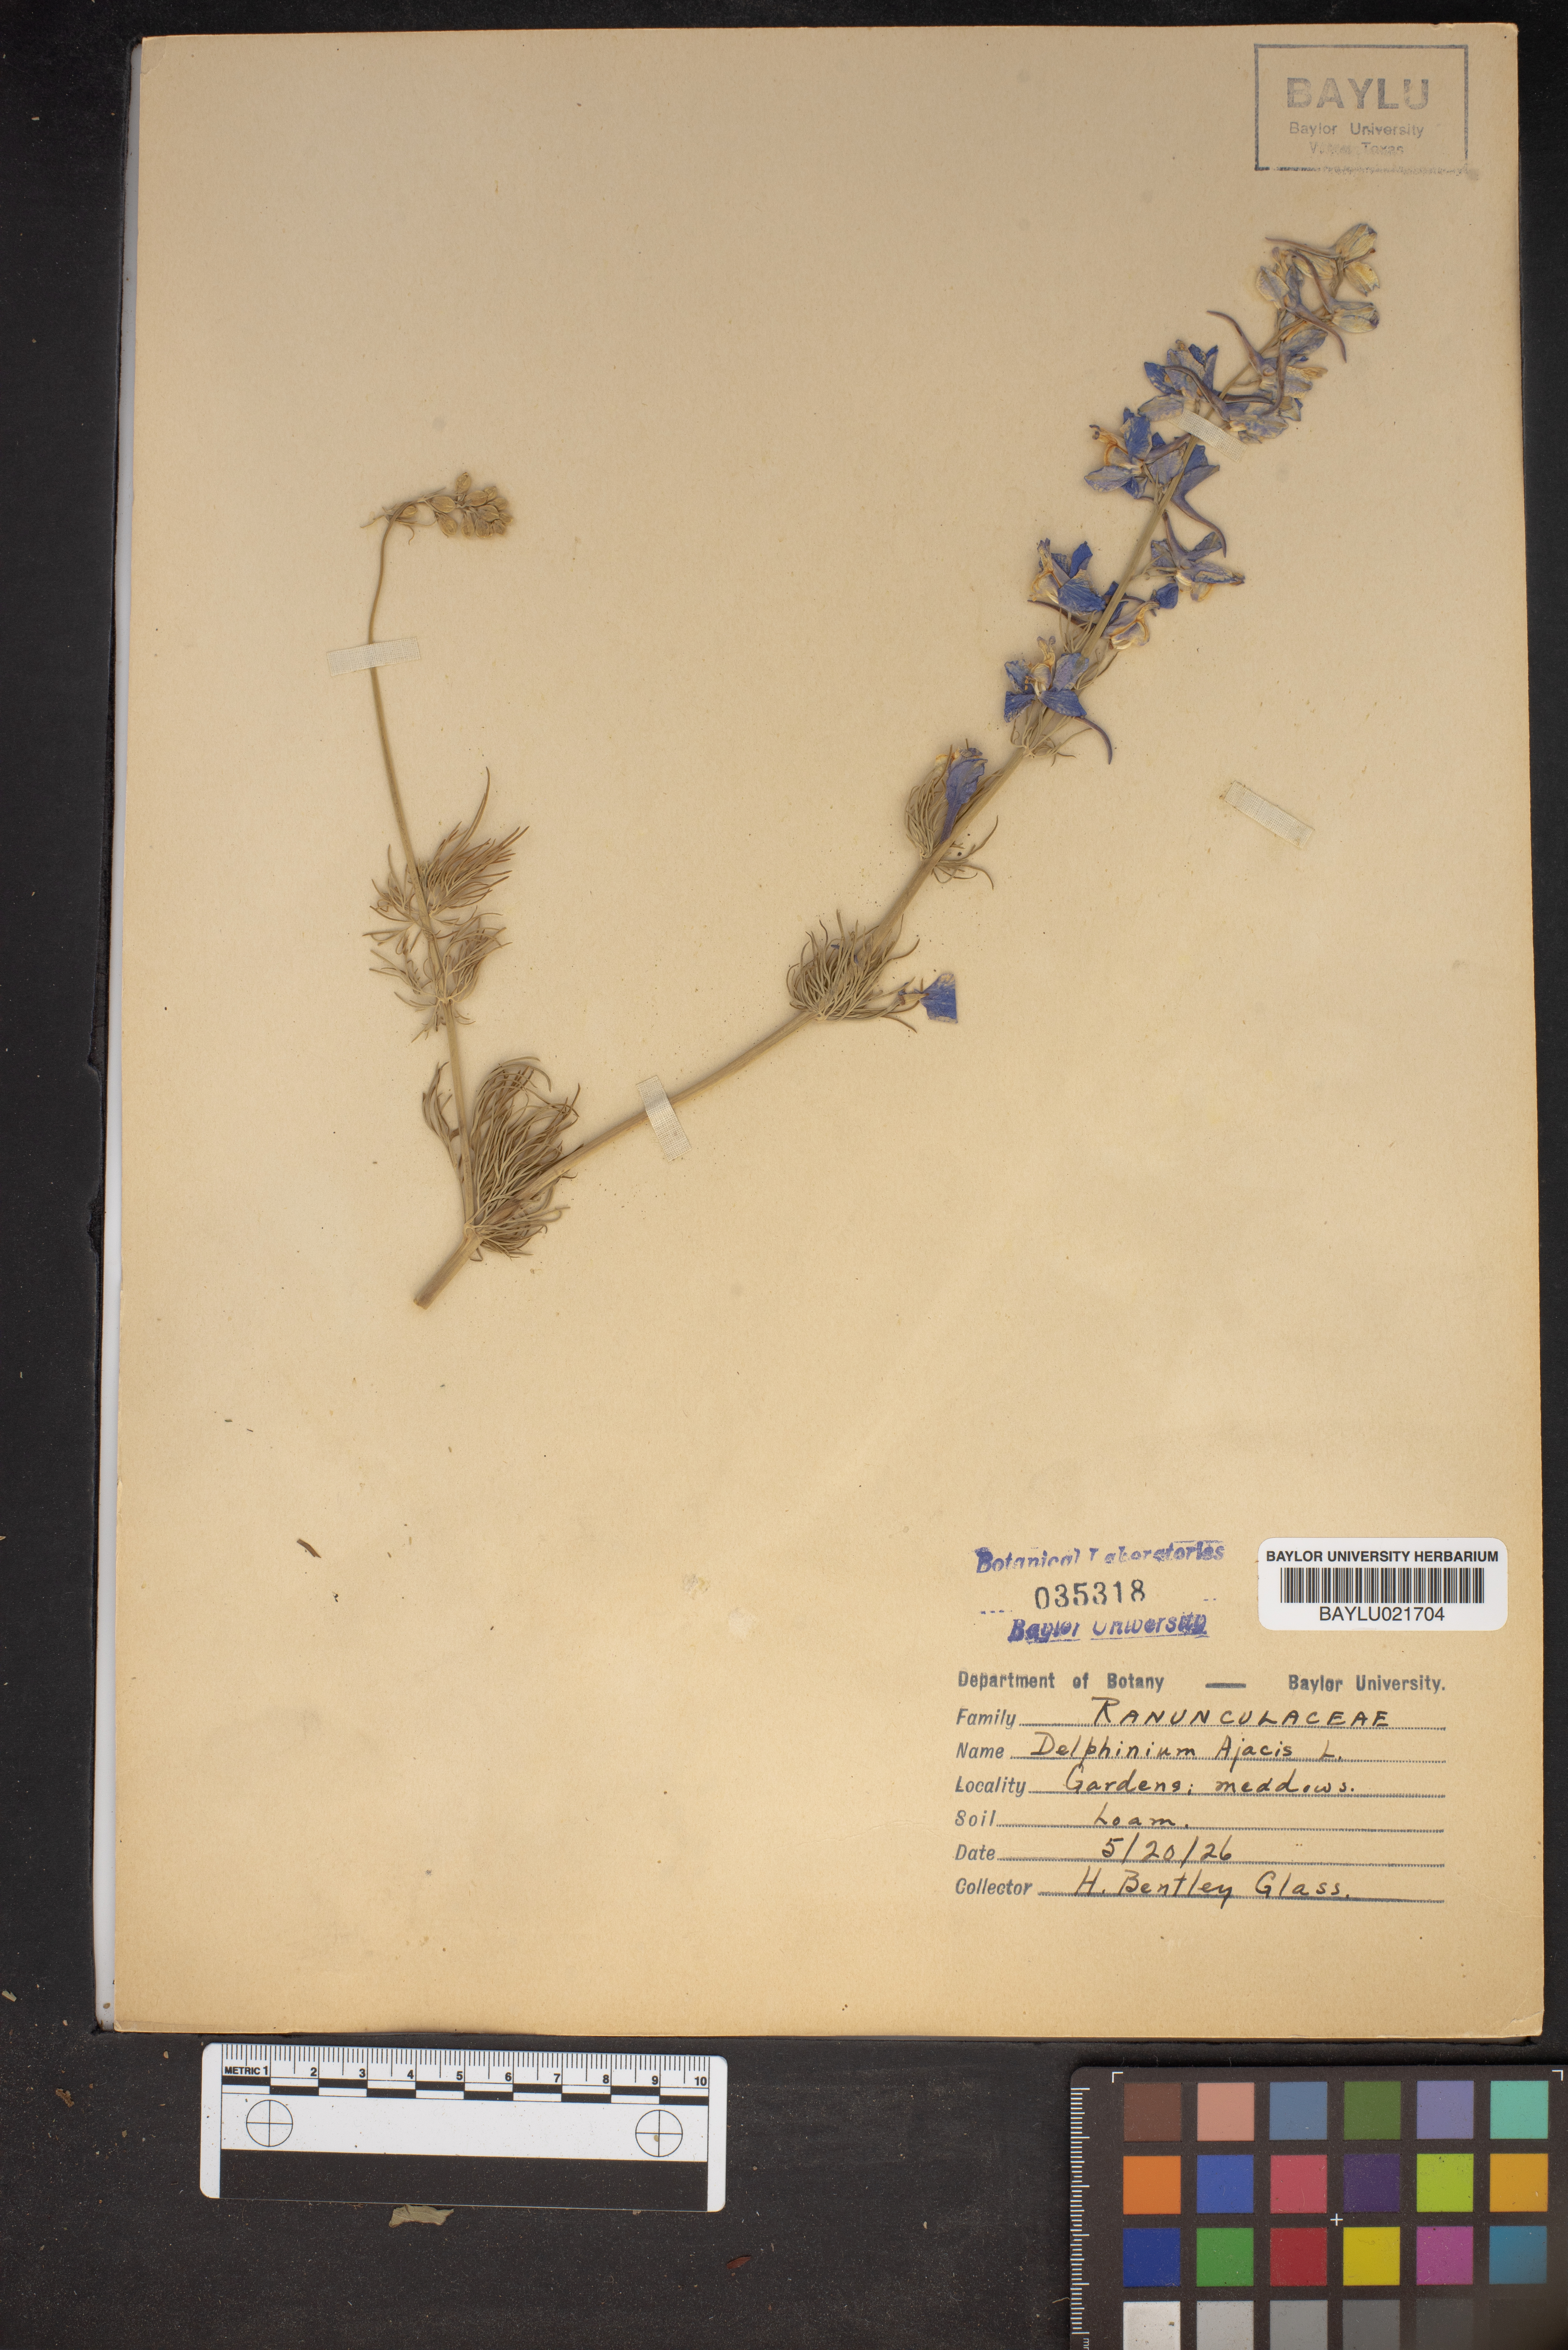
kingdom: Plantae
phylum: Tracheophyta
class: Magnoliopsida
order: Ranunculales
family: Ranunculaceae
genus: Delphinium
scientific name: Delphinium ajacis
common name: Doubtful knight's-spur
